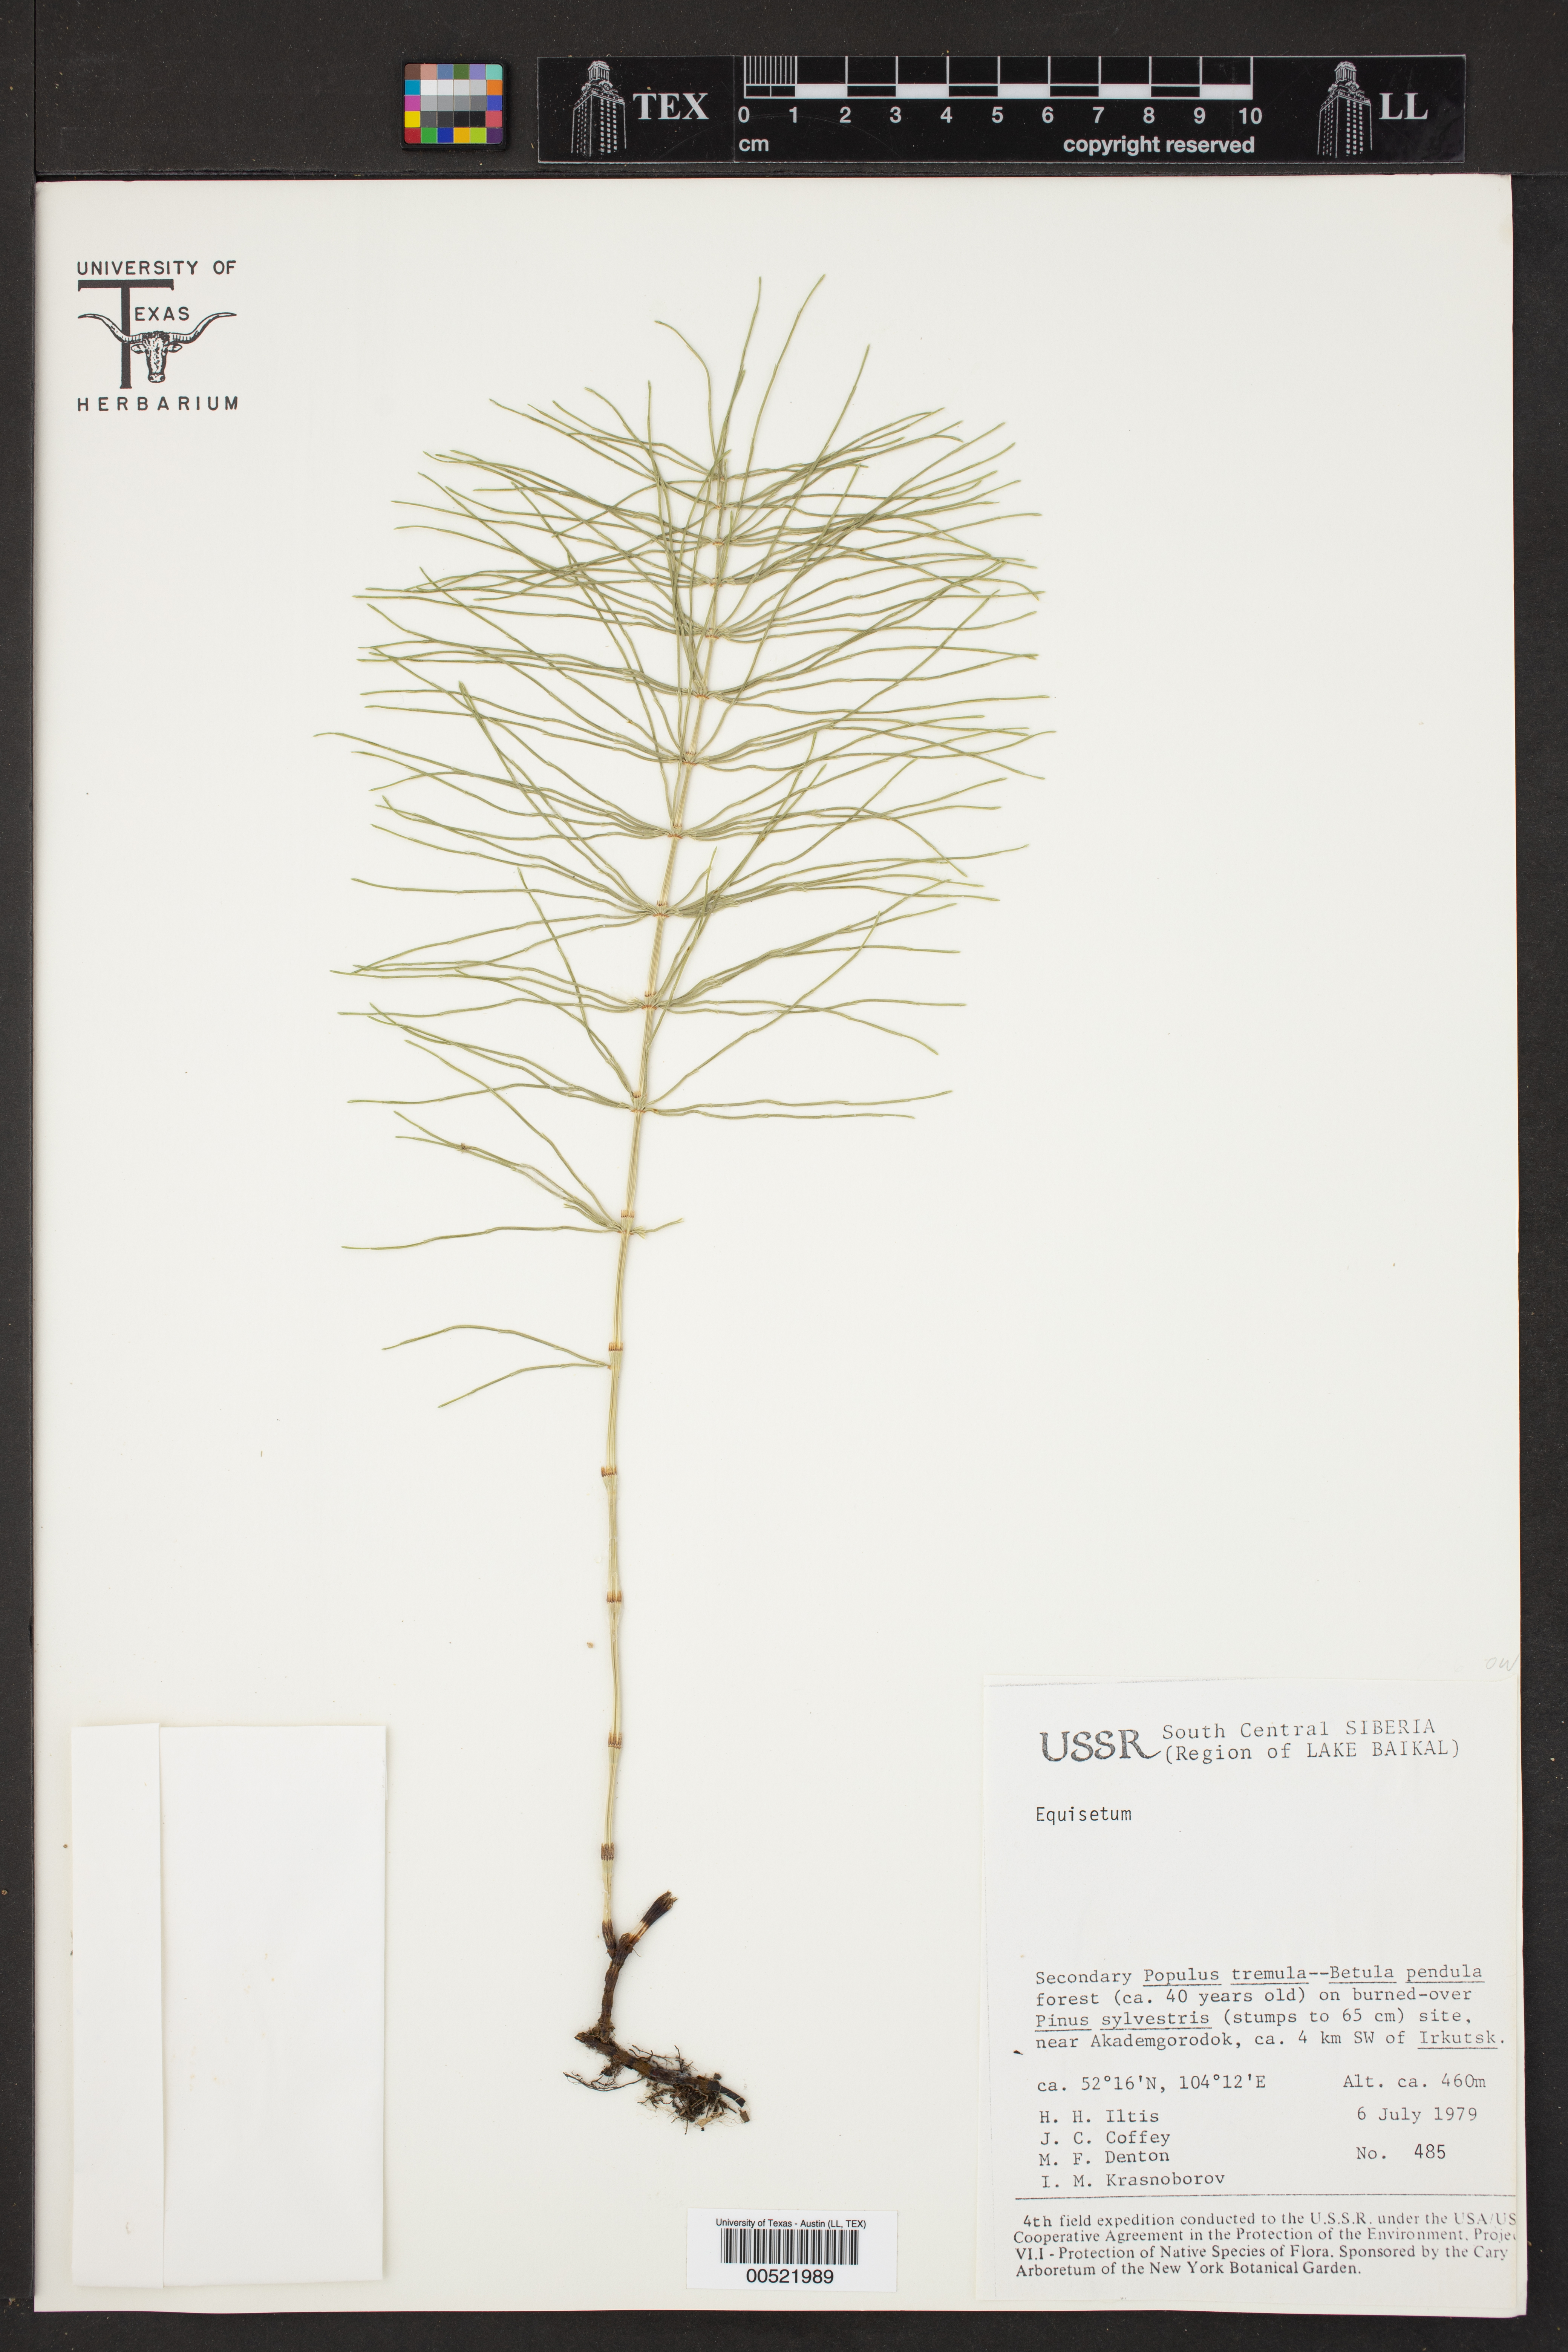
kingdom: Plantae
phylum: Tracheophyta
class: Polypodiopsida
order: Equisetales
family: Equisetaceae
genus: Equisetum
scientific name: Equisetum
